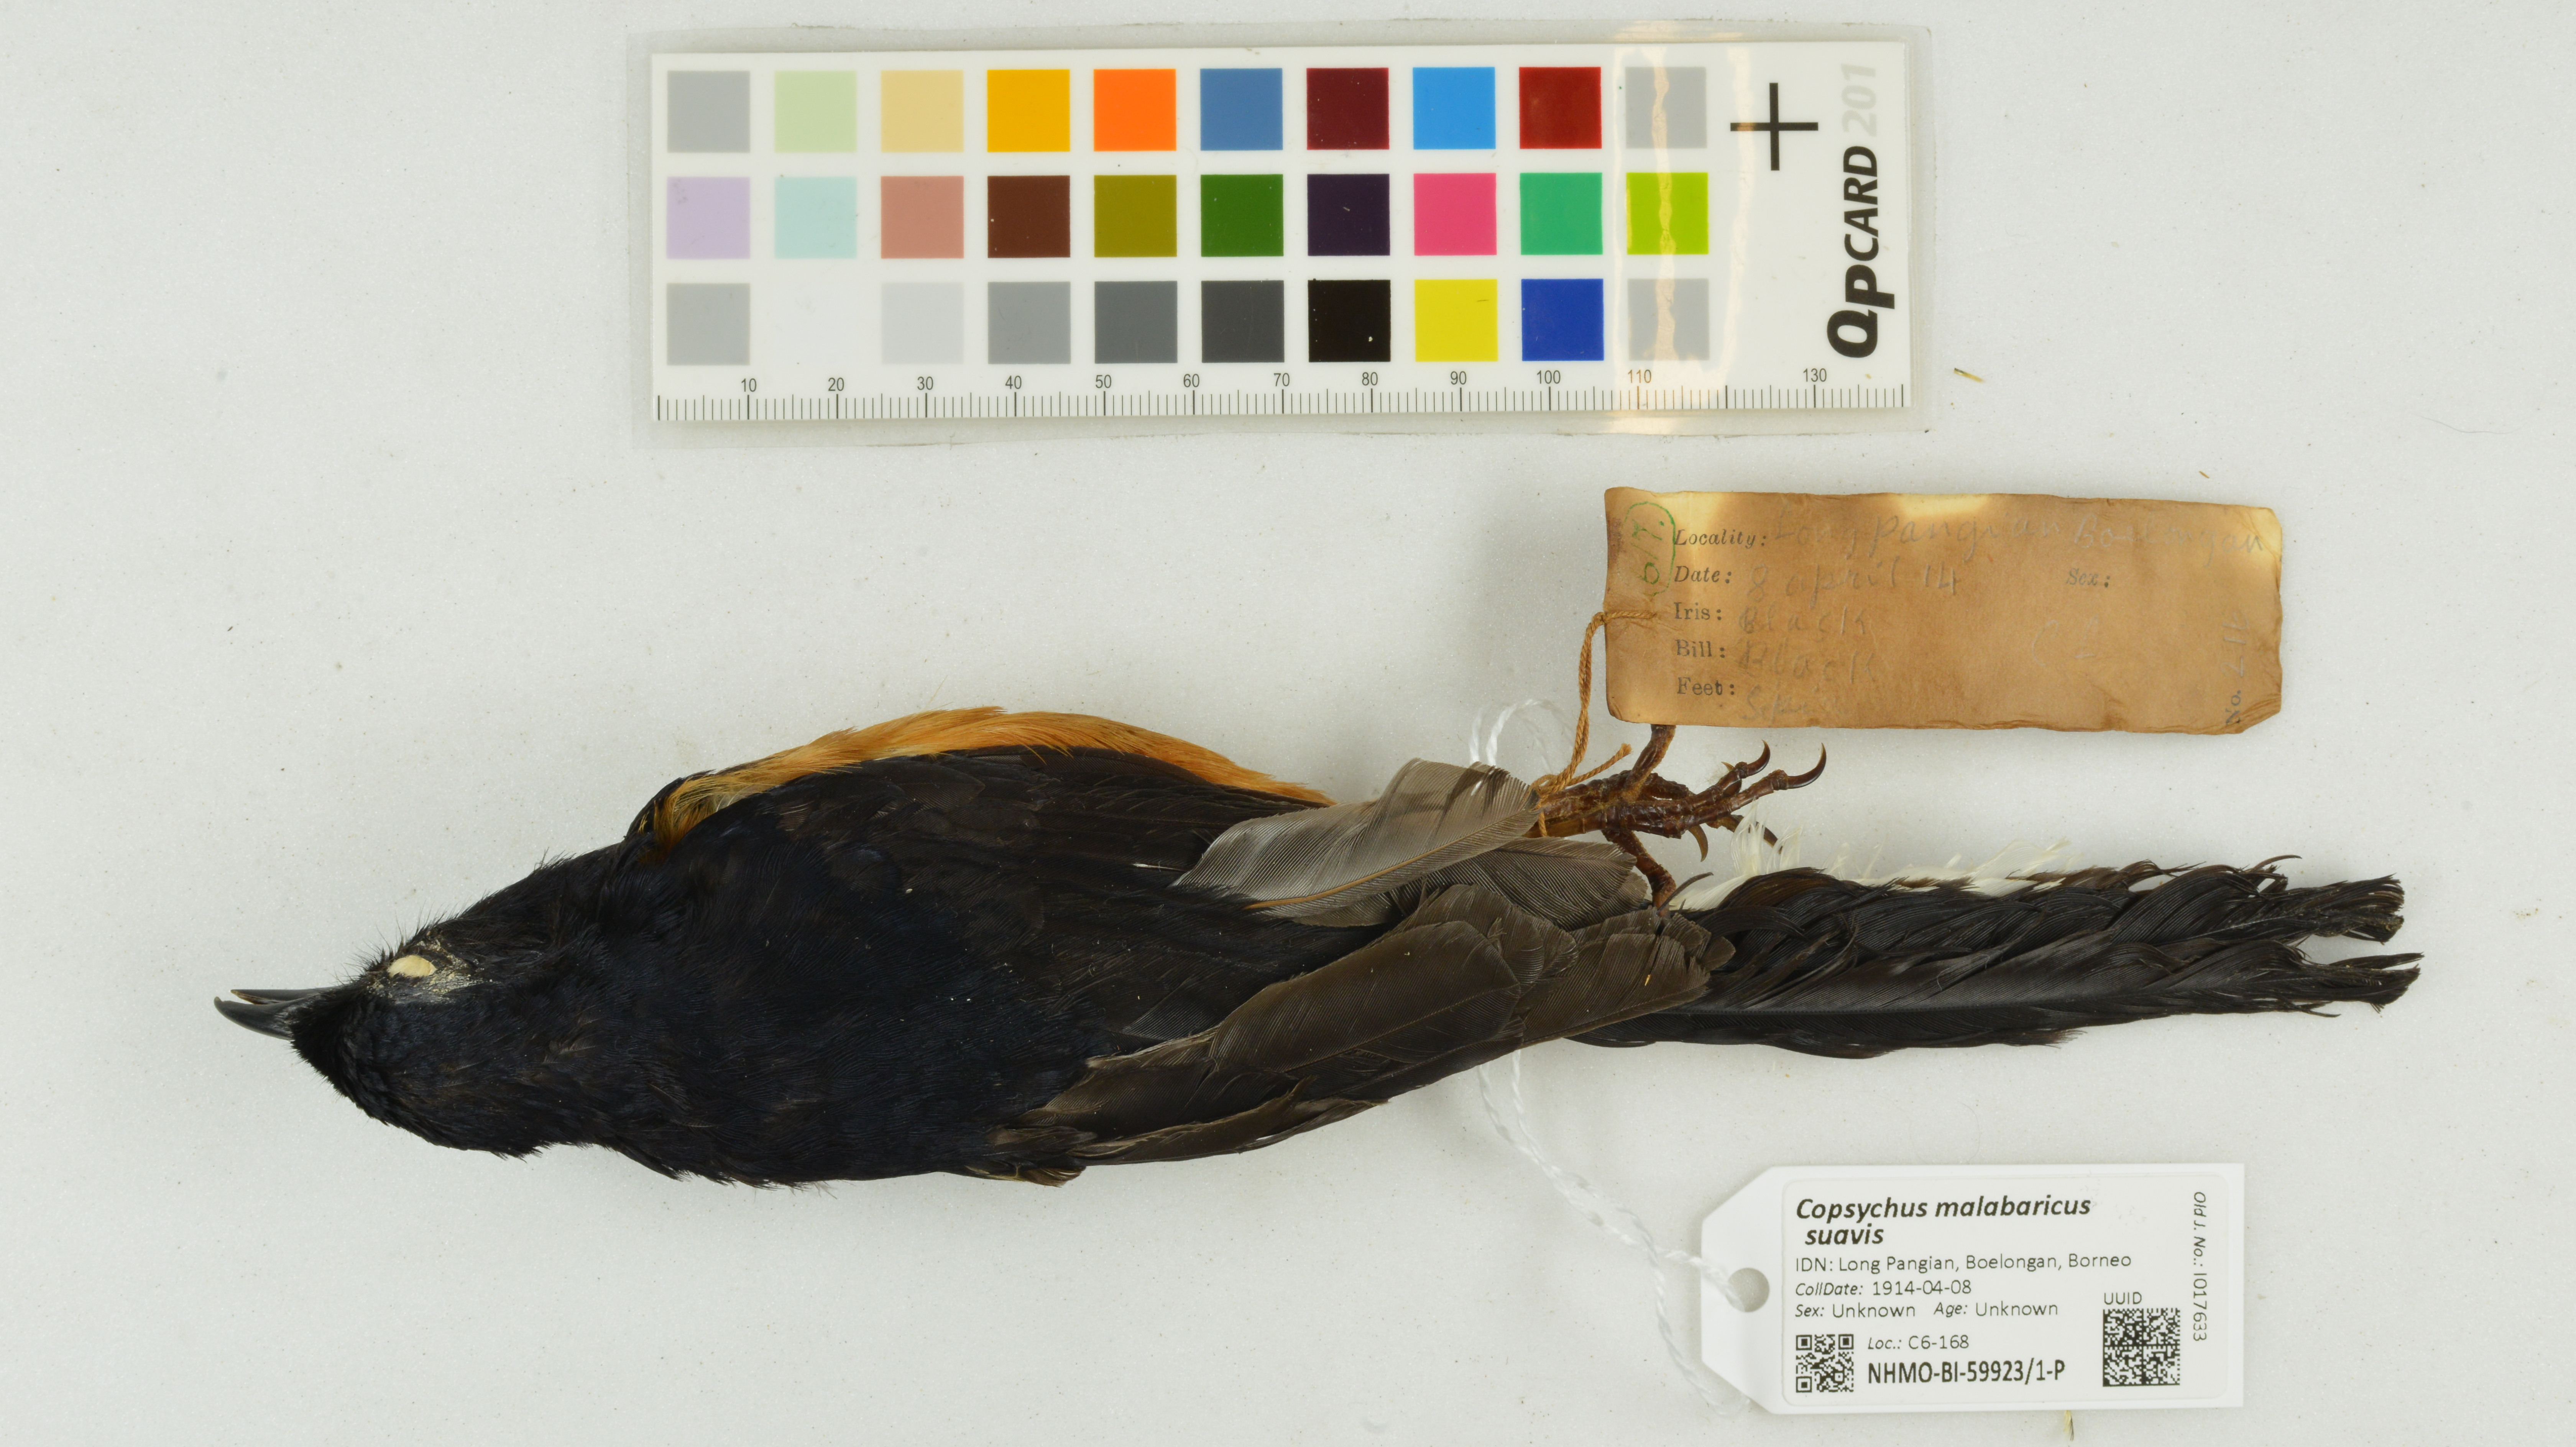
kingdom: Animalia
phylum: Chordata
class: Aves
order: Passeriformes
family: Muscicapidae
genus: Copsychus
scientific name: Copsychus malabaricus
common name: White-rumped shama
